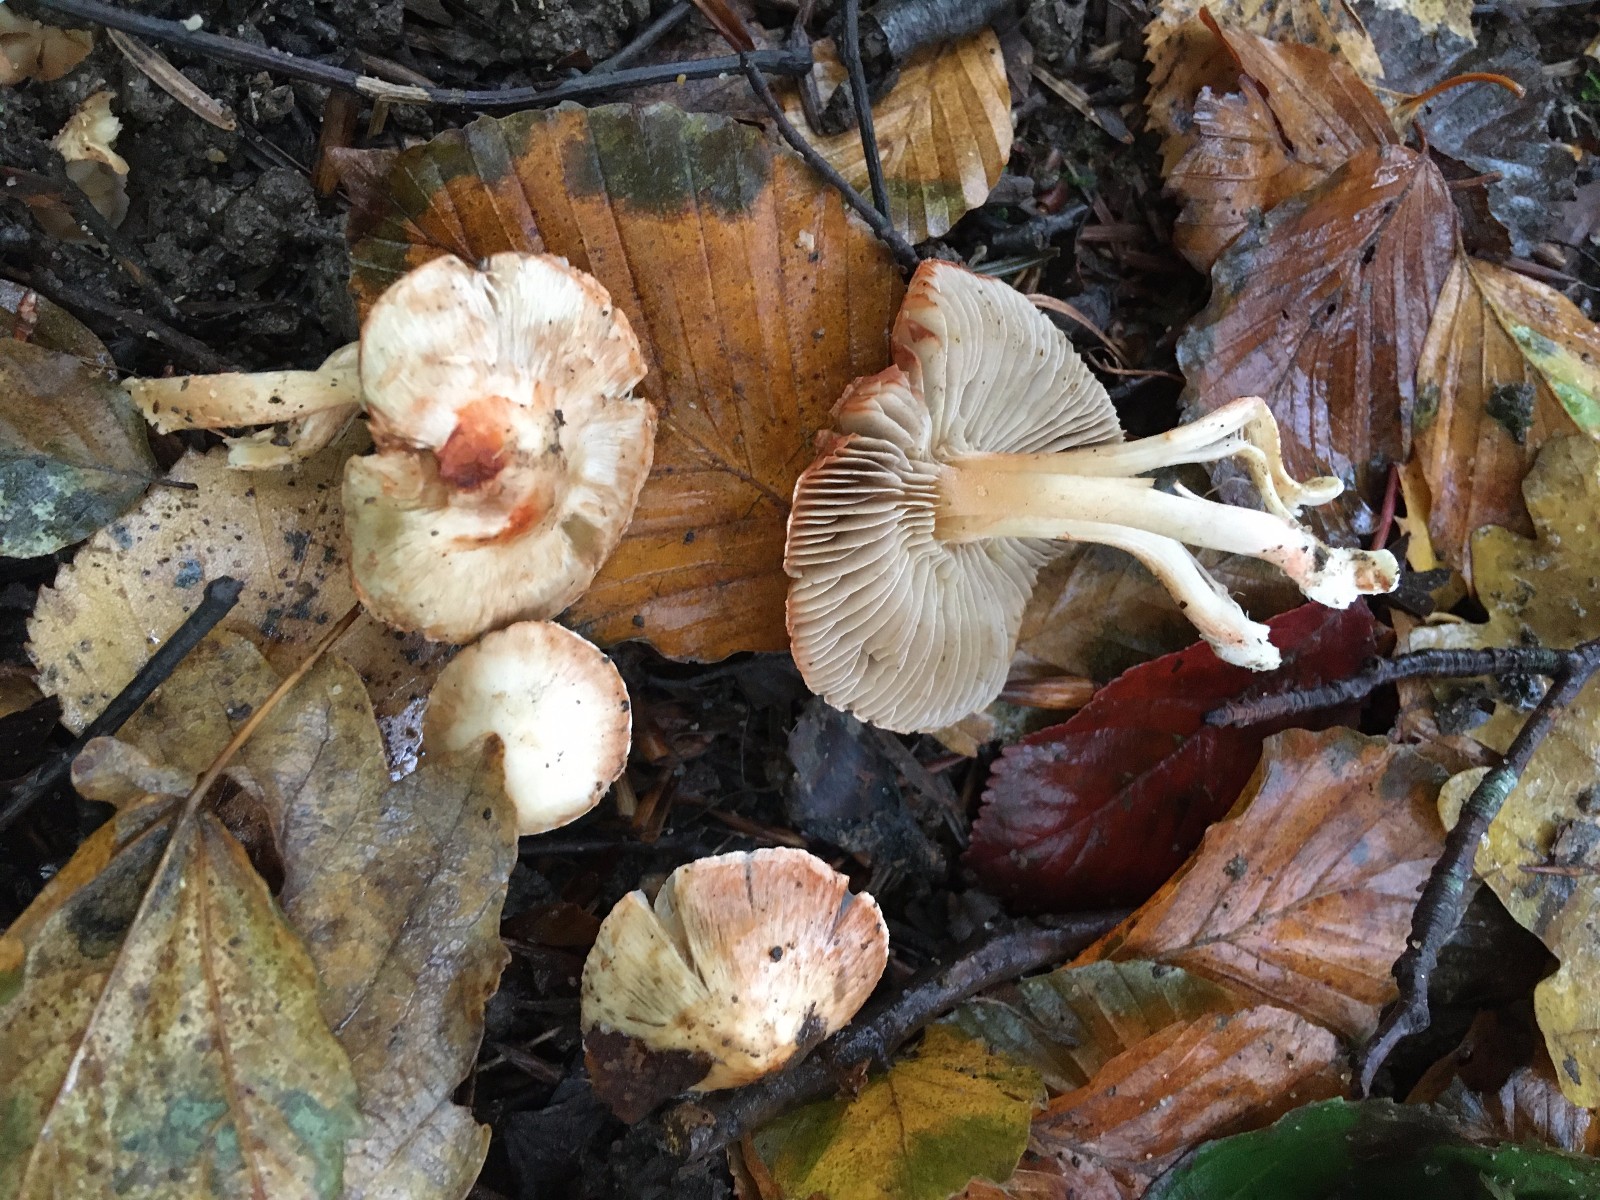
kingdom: Fungi
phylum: Basidiomycota
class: Agaricomycetes
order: Agaricales
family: Inocybaceae
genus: Inocybe
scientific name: Inocybe godeyi
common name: orangerødmende trævlhat
